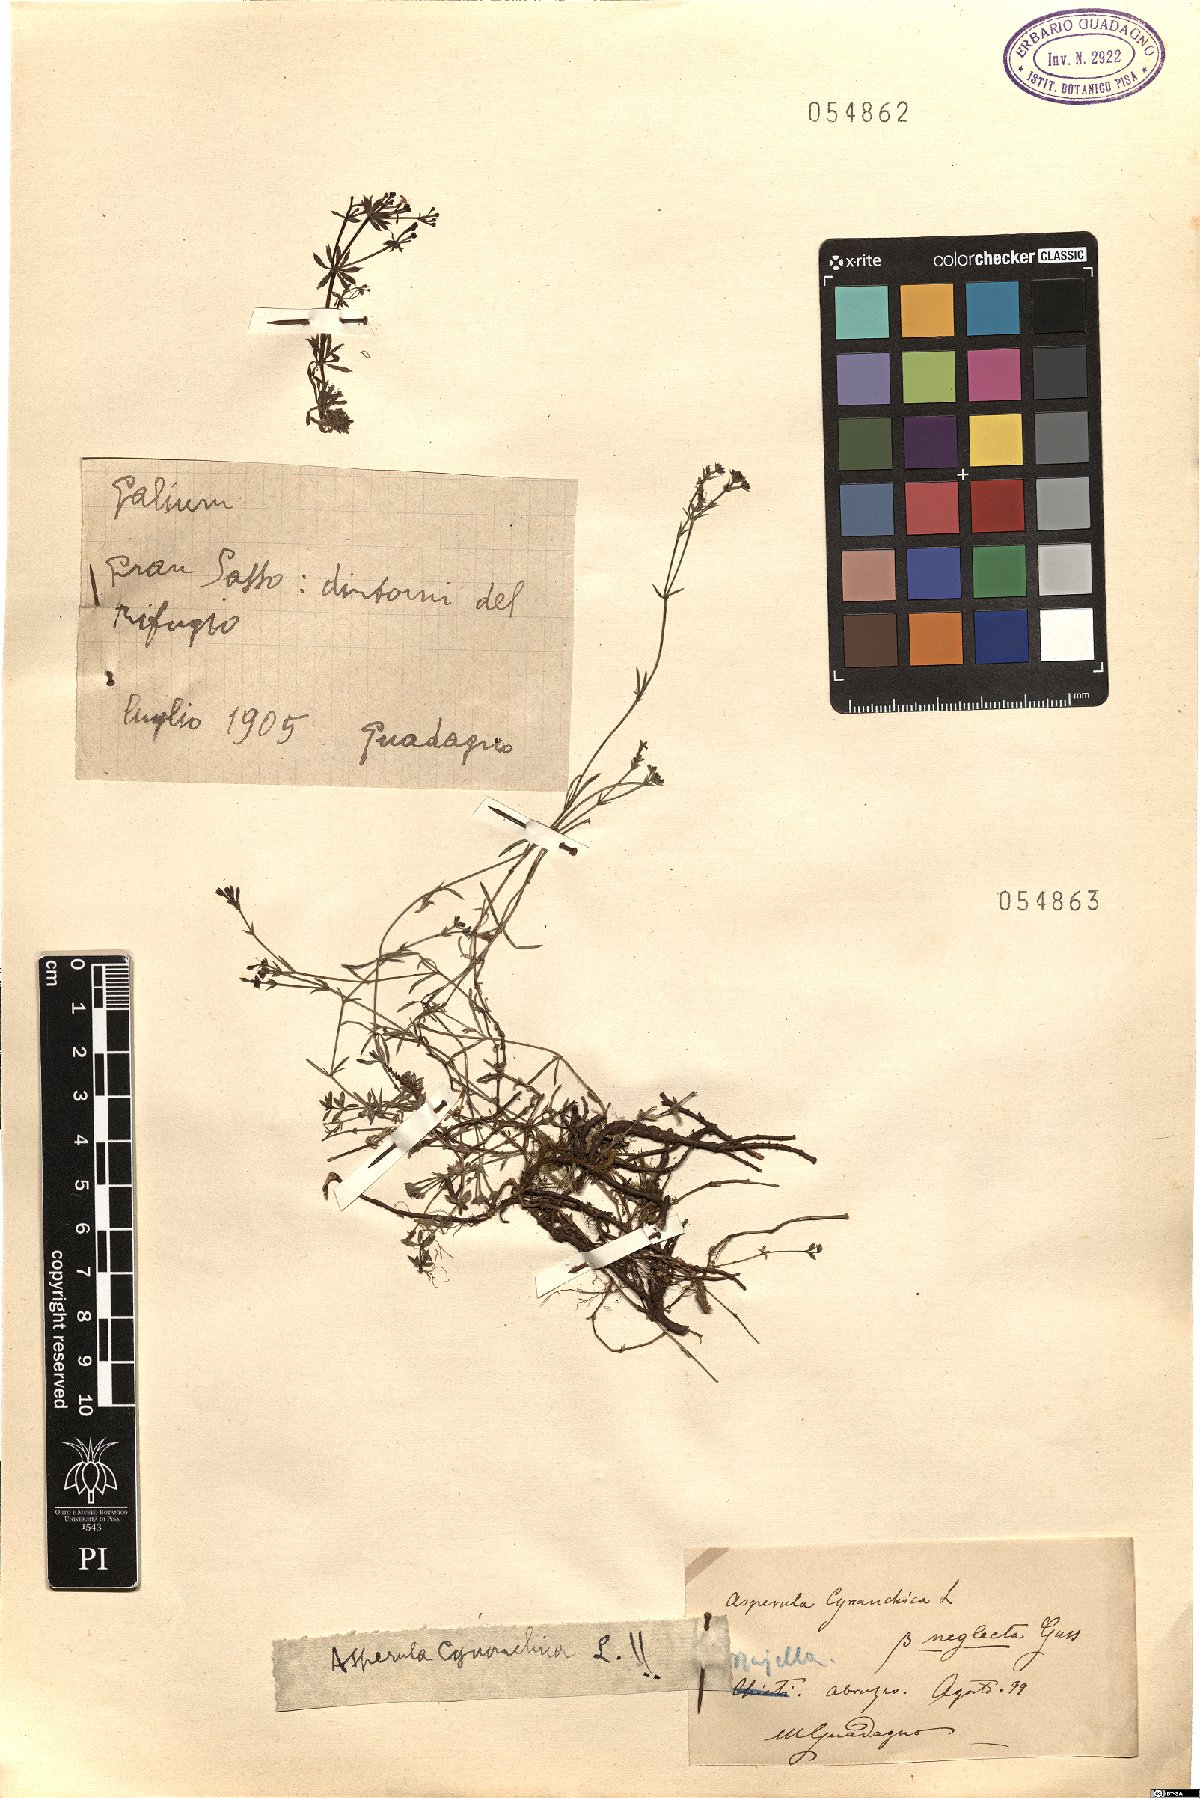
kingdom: Plantae
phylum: Tracheophyta
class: Magnoliopsida
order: Gentianales
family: Rubiaceae
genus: Cynanchica
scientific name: Cynanchica pyrenaica
